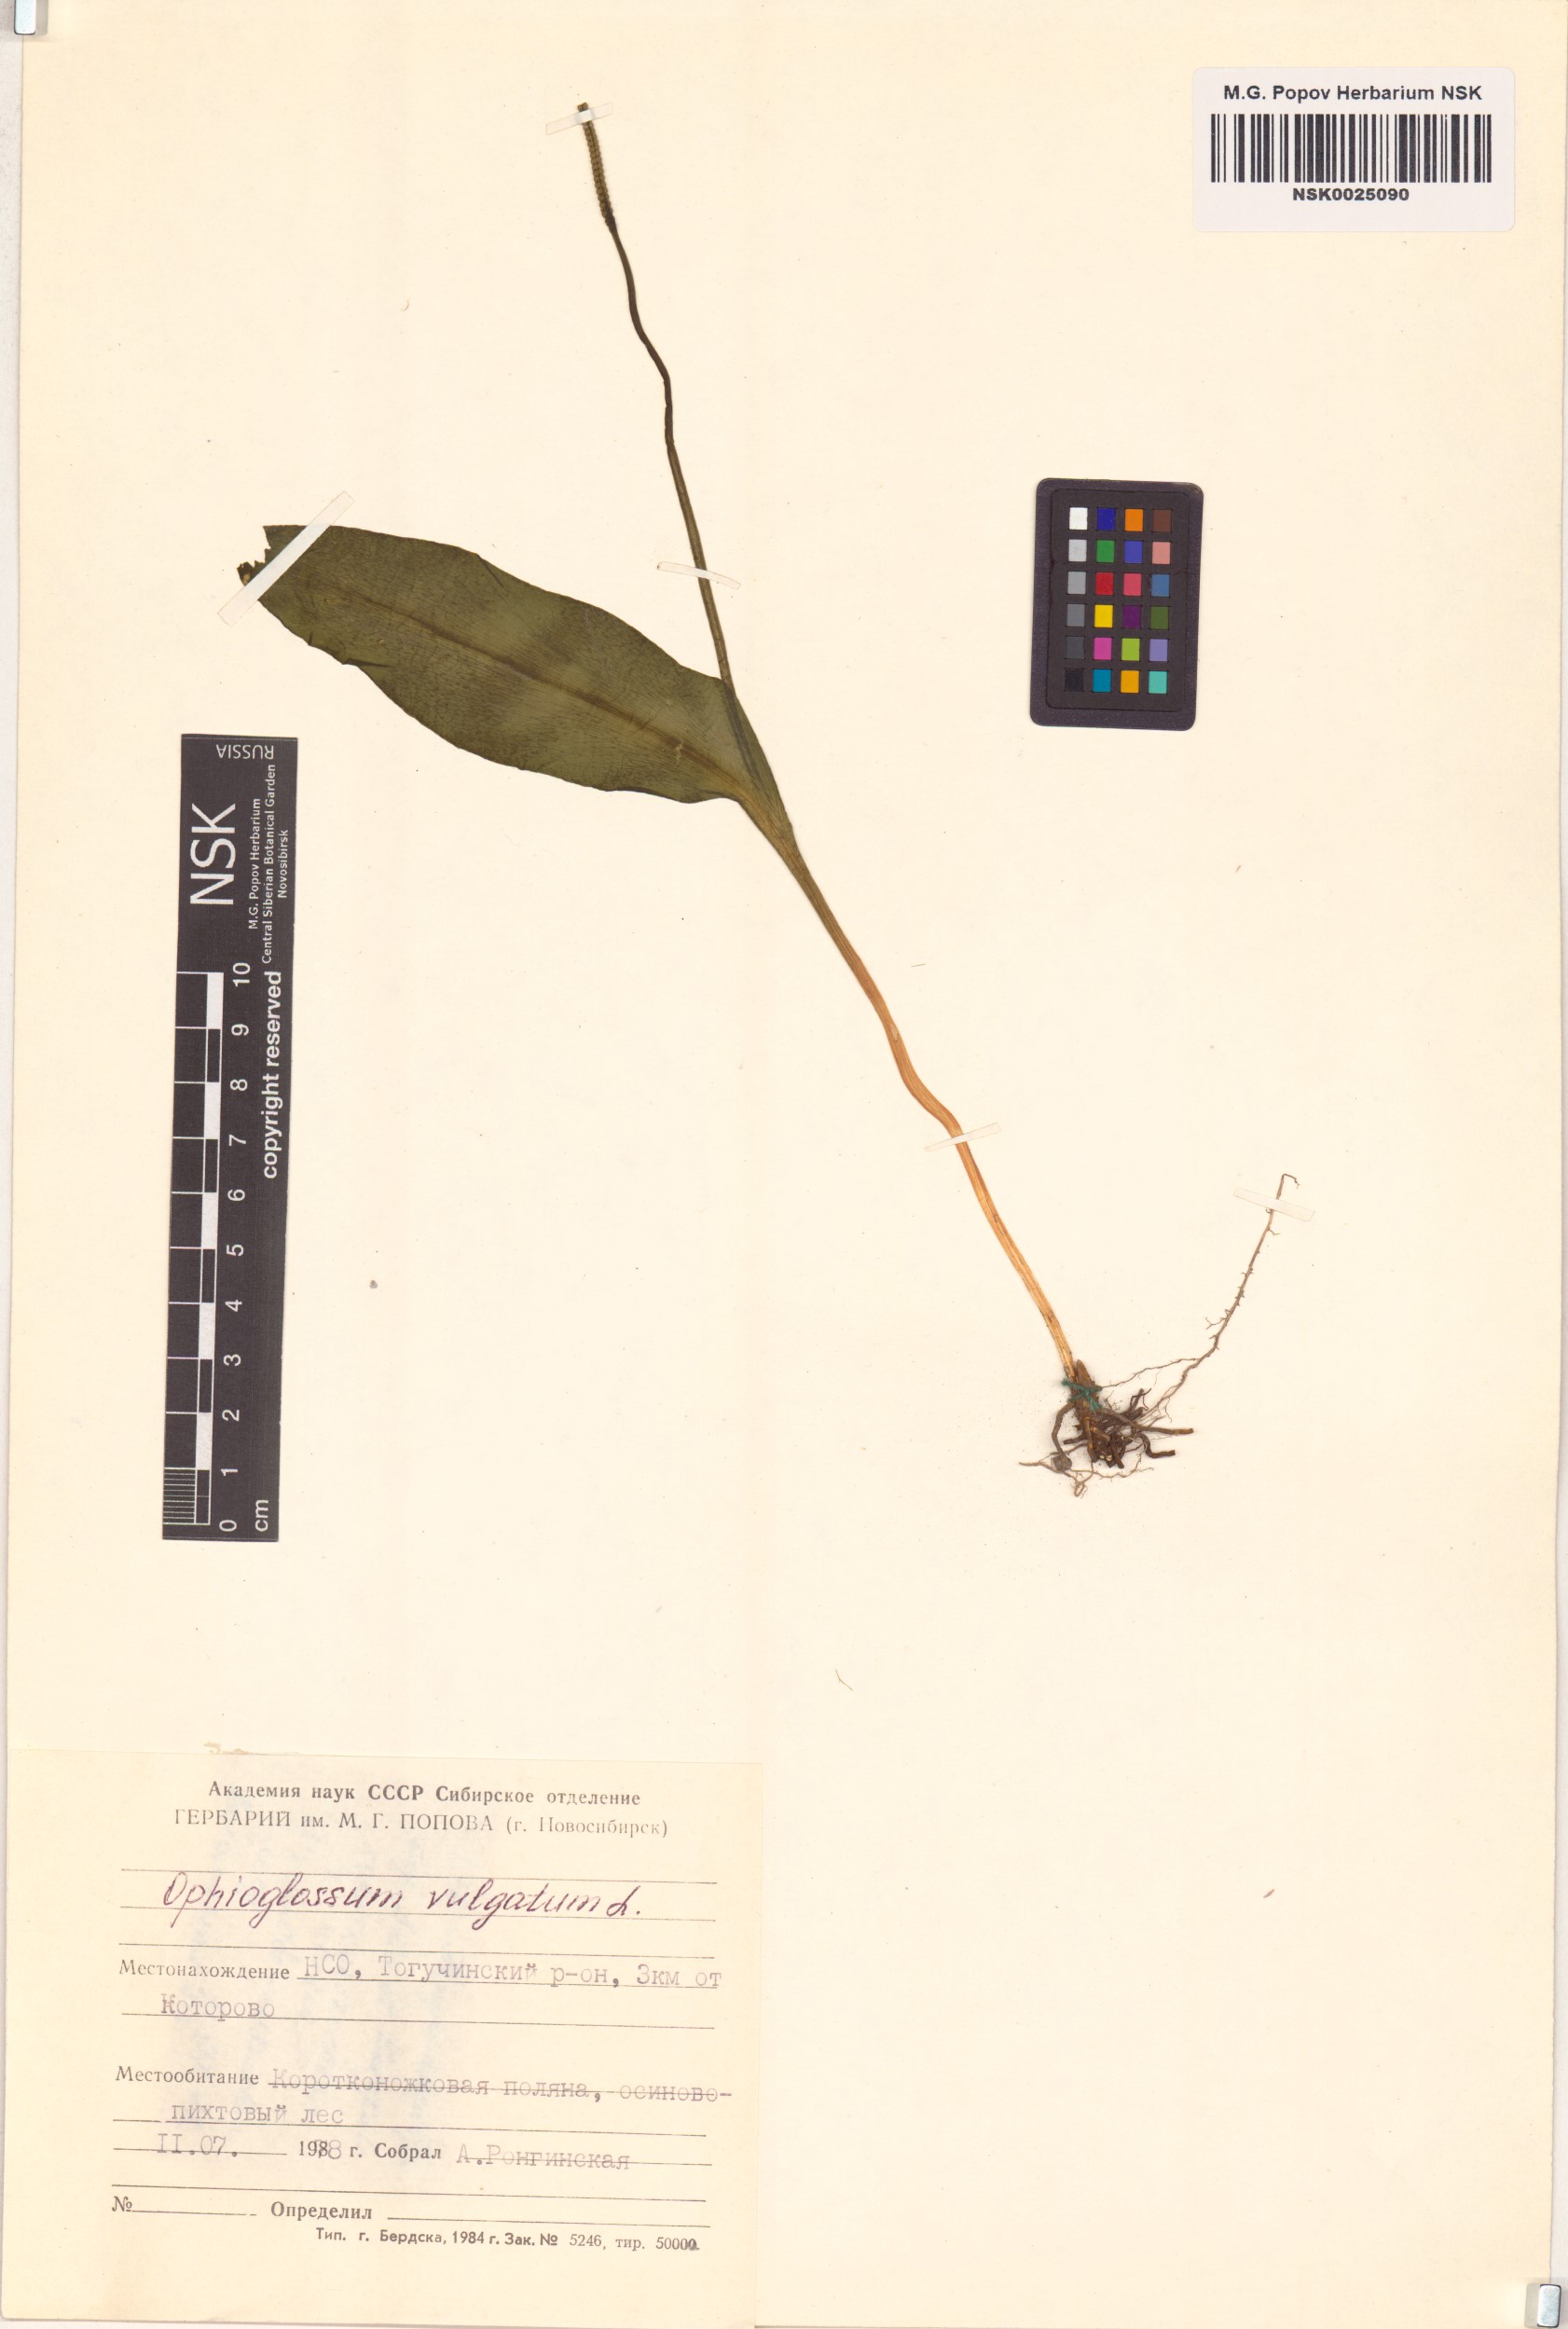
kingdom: Plantae
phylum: Tracheophyta
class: Polypodiopsida
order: Ophioglossales
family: Ophioglossaceae
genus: Ophioglossum
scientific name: Ophioglossum vulgatum
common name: Adder's-tongue
